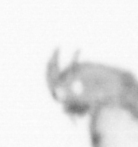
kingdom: Animalia
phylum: Annelida
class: Polychaeta
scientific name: Polychaeta
